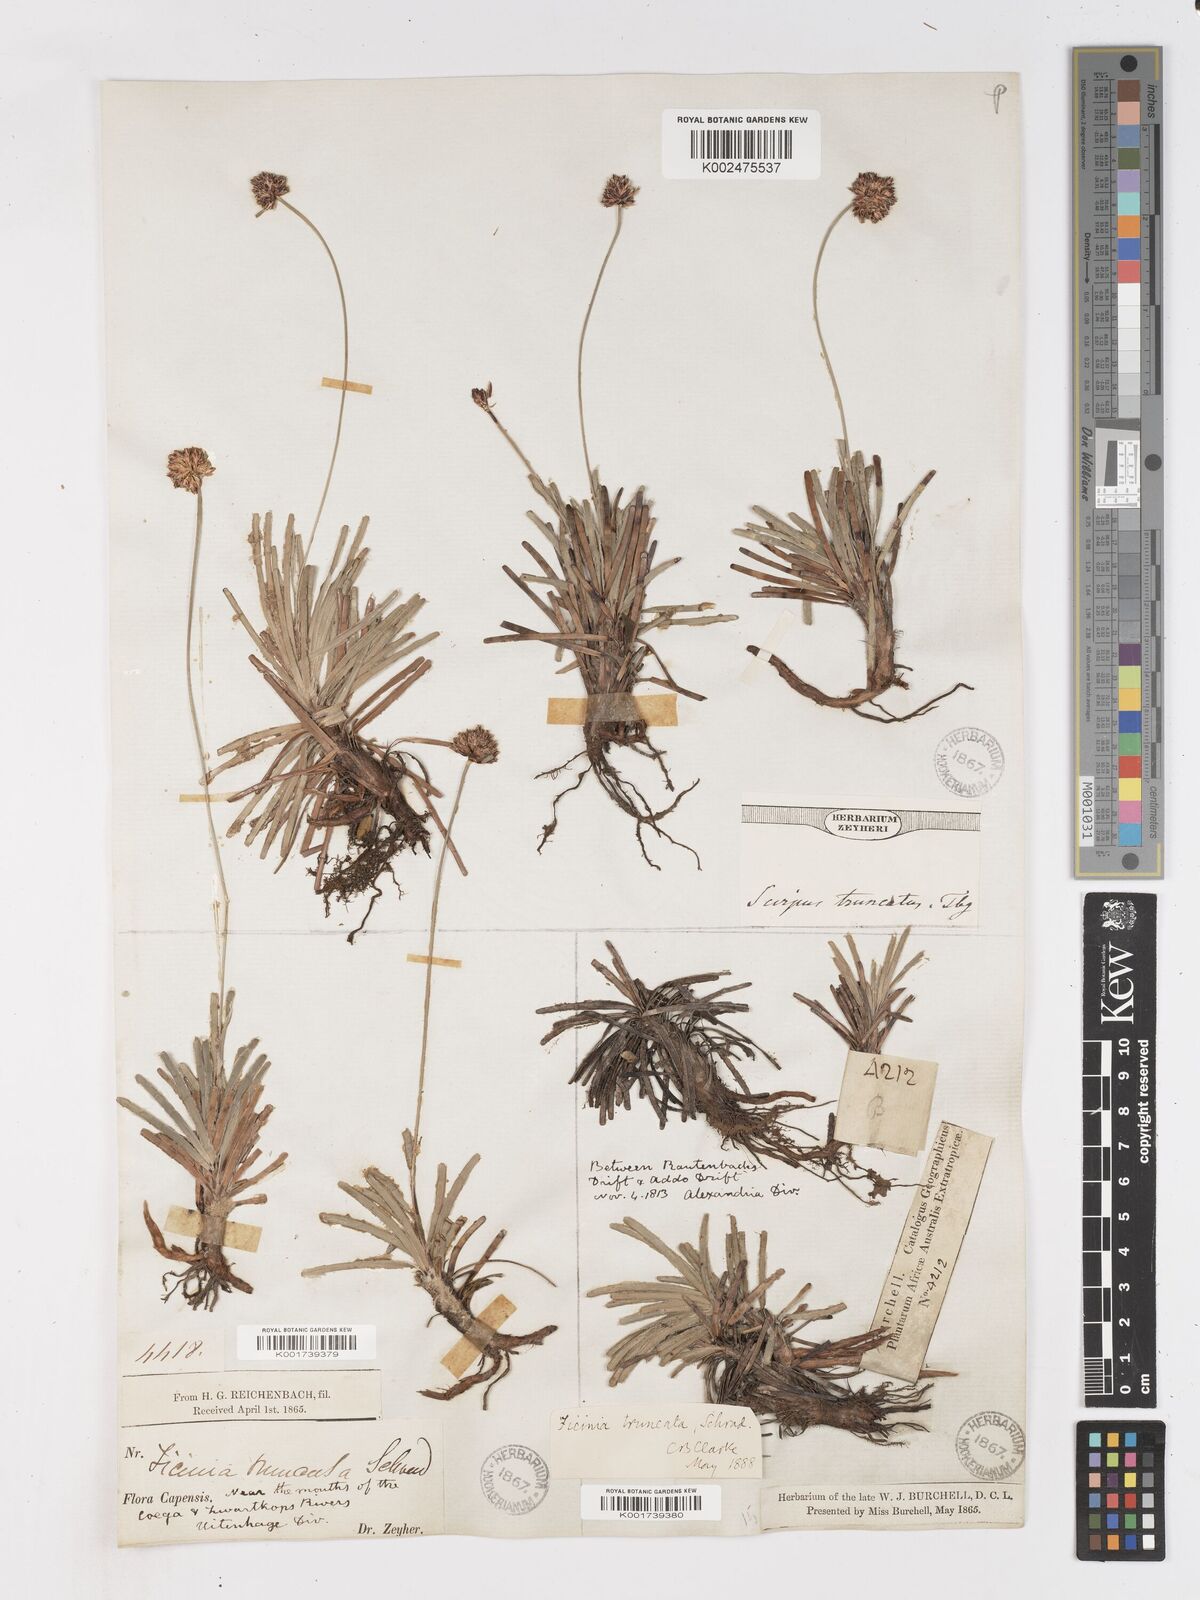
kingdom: Plantae
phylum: Tracheophyta
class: Liliopsida
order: Poales
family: Cyperaceae
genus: Ficinia
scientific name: Ficinia truncata
